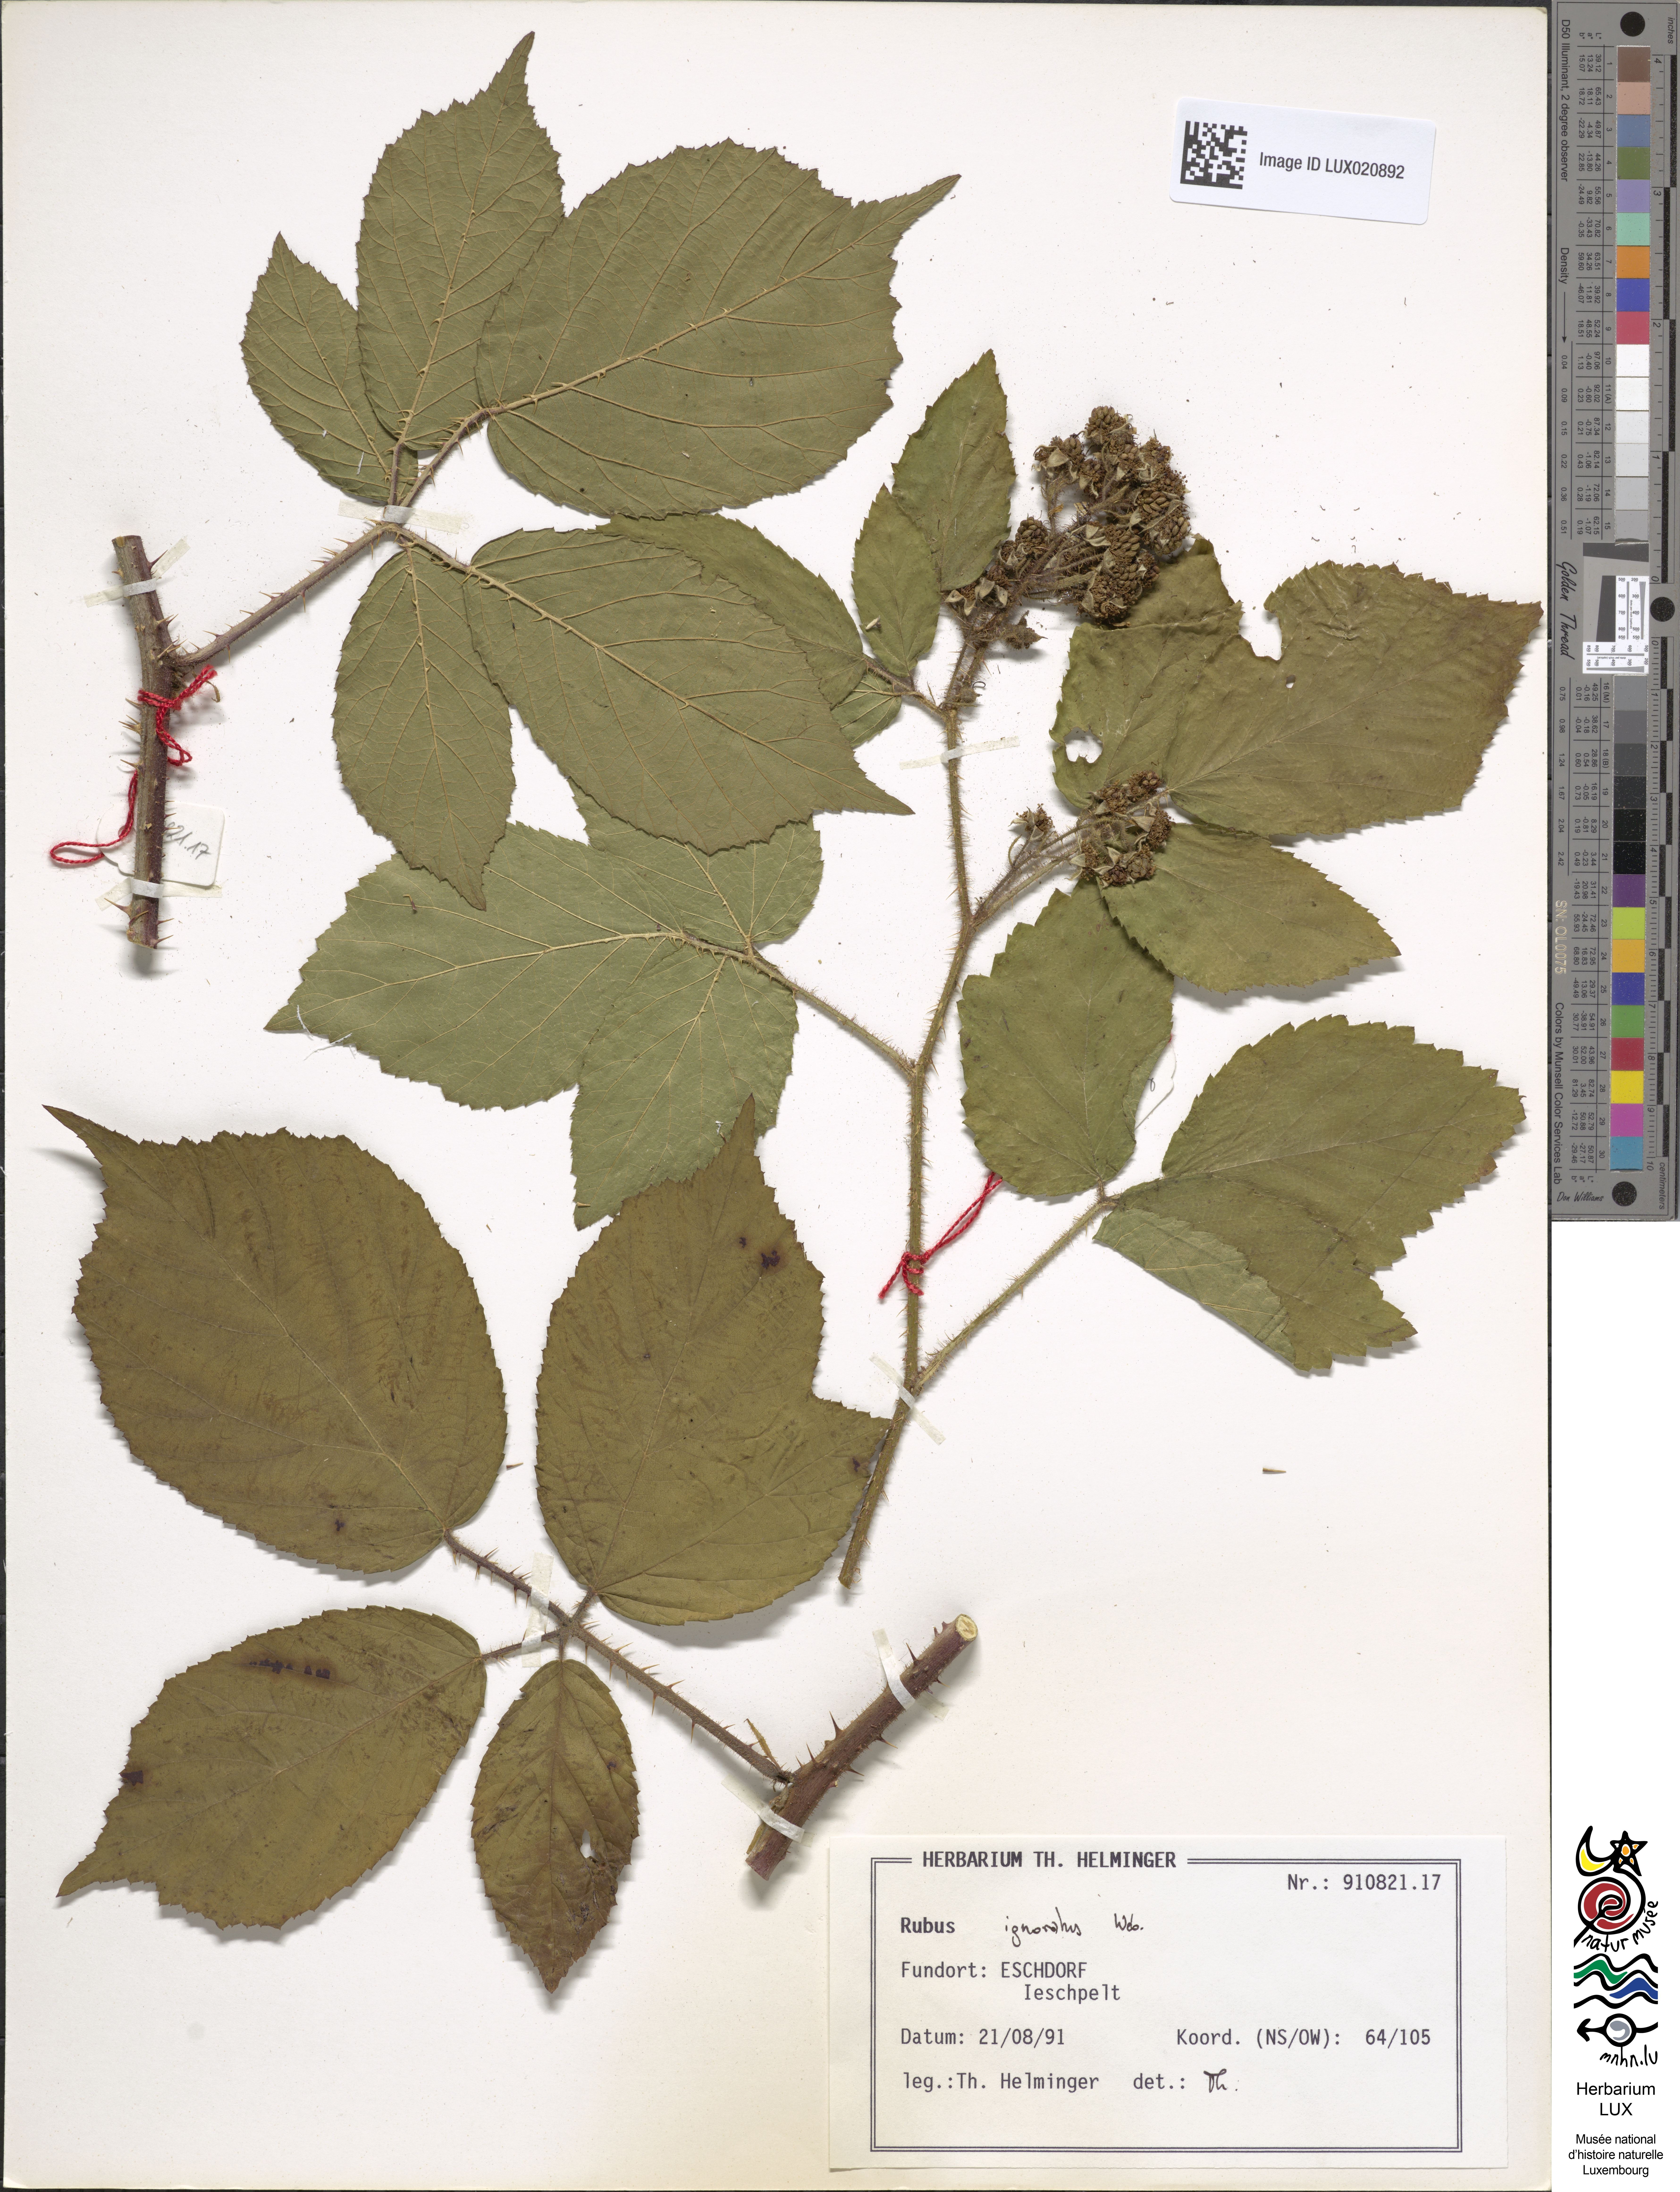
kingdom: Plantae
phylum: Tracheophyta
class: Magnoliopsida
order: Rosales
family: Rosaceae
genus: Rubus
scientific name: Rubus ignoratus
